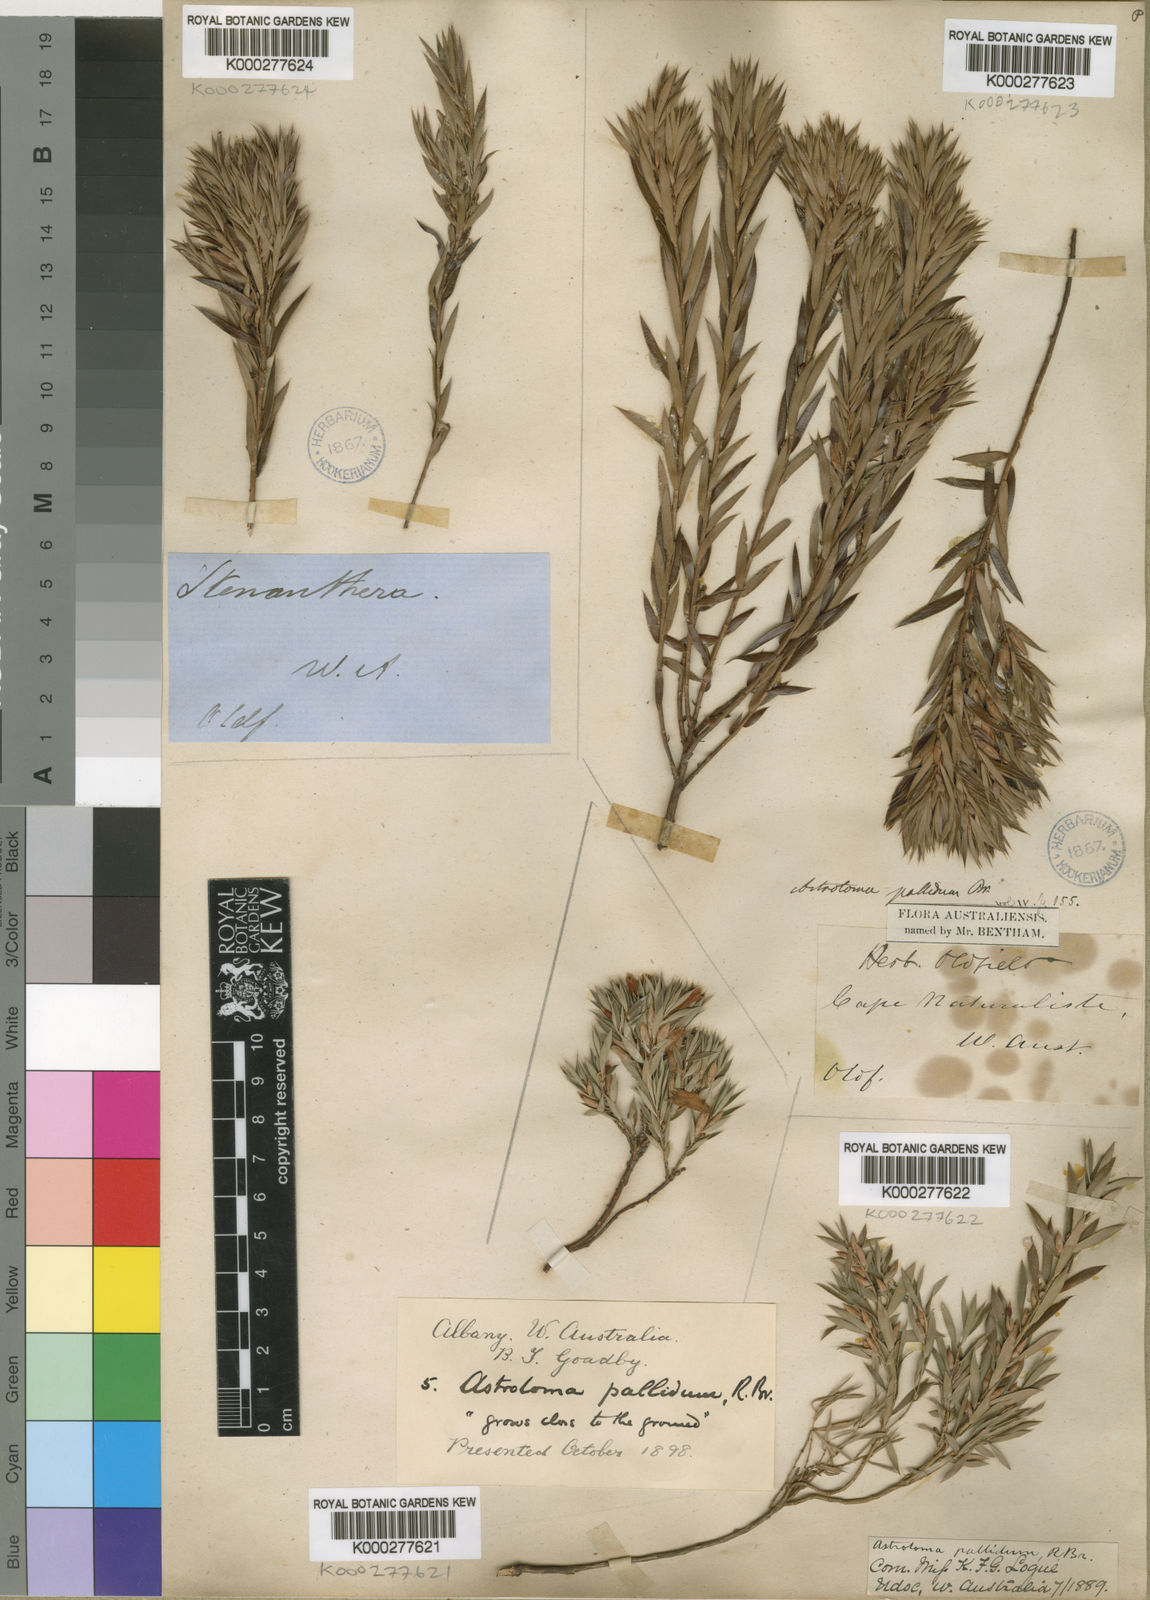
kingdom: Plantae
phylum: Tracheophyta
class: Magnoliopsida
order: Ericales
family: Ericaceae
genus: Styphelia
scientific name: Styphelia pallida
